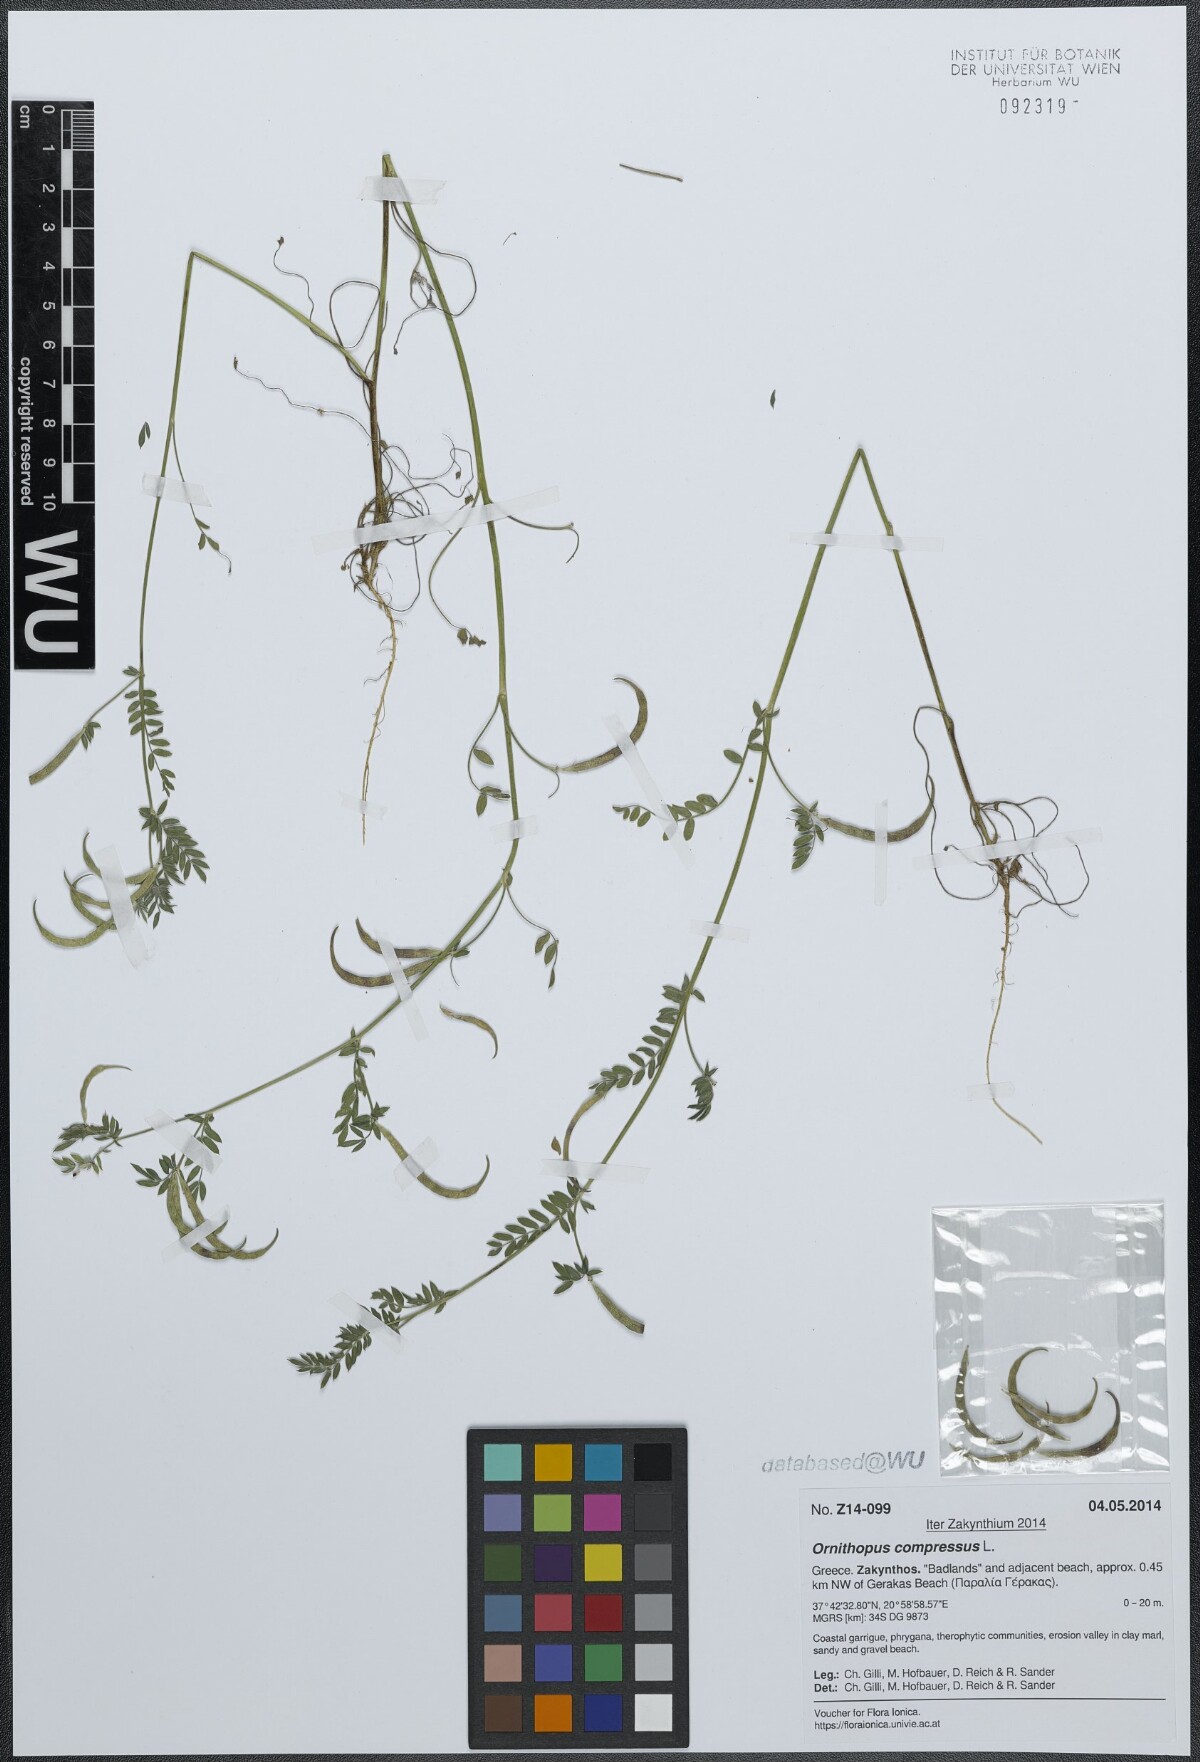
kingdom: Plantae
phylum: Tracheophyta
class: Magnoliopsida
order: Fabales
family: Fabaceae
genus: Ornithopus
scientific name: Ornithopus compressus
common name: Yellow serradella
